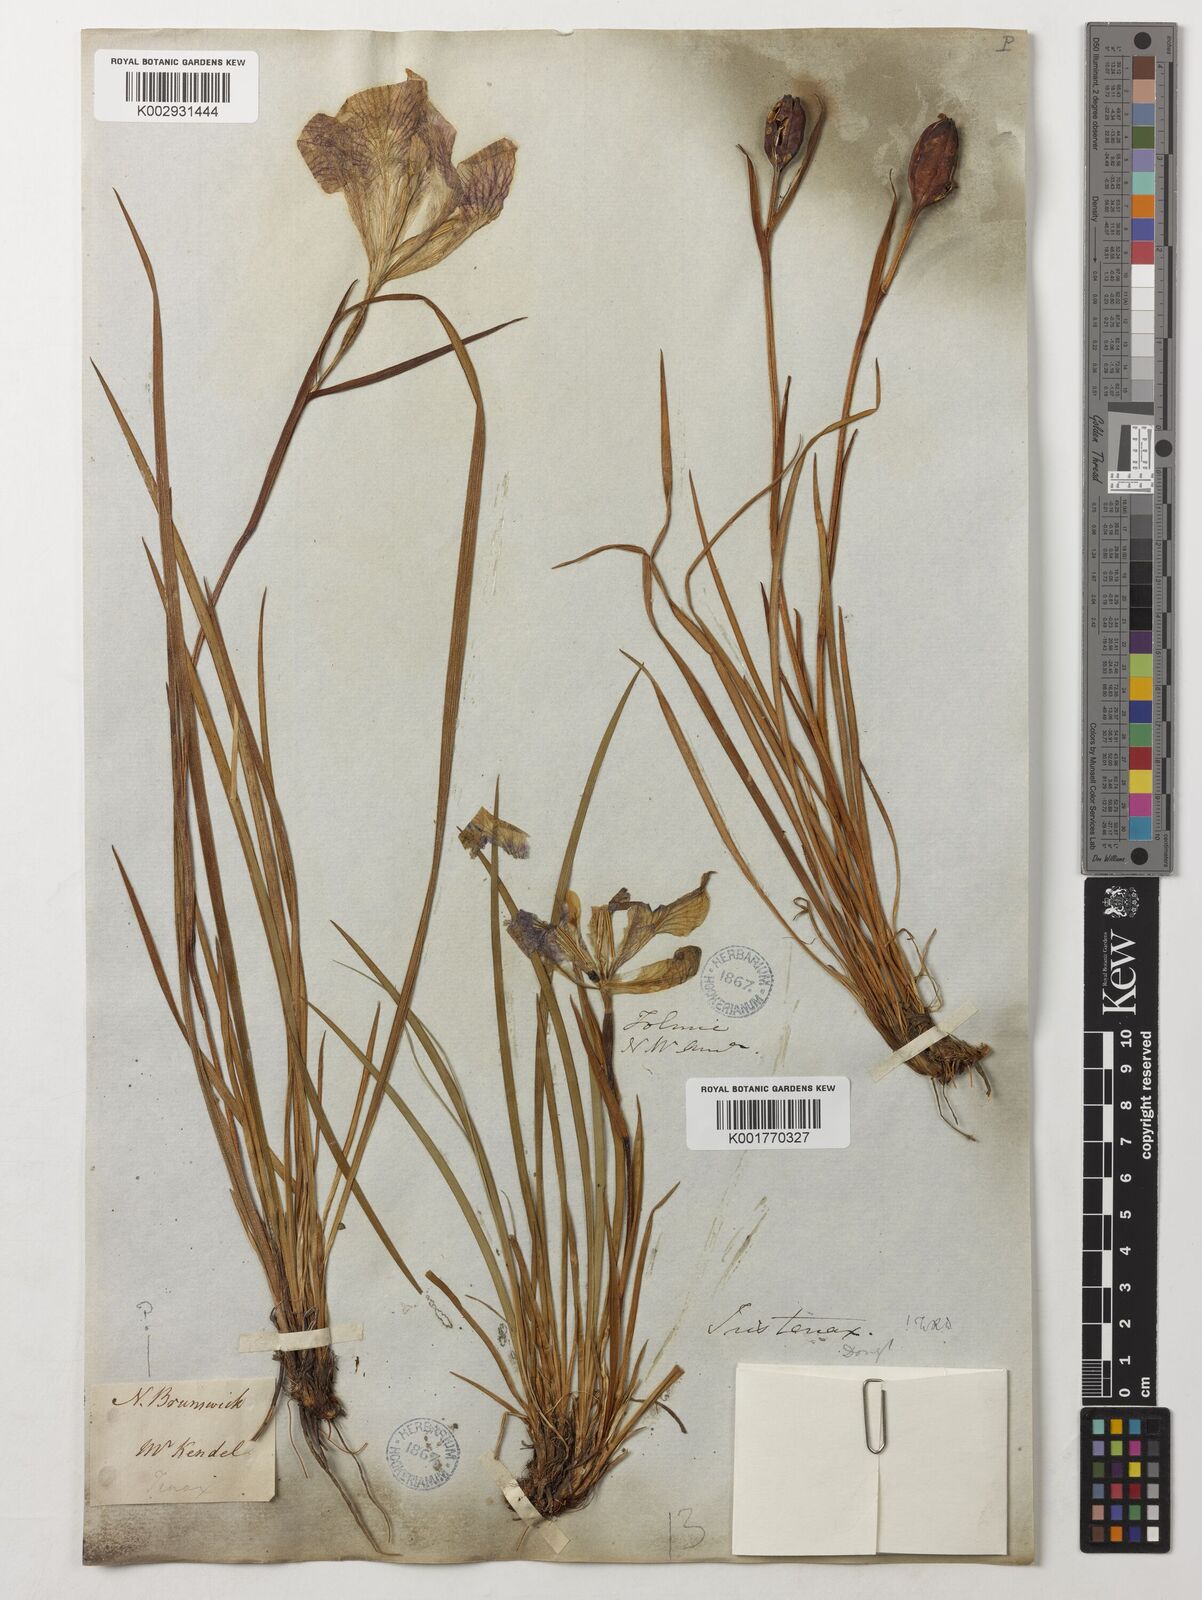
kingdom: Plantae
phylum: Tracheophyta
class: Liliopsida
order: Asparagales
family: Iridaceae
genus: Iris
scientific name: Iris tenax
